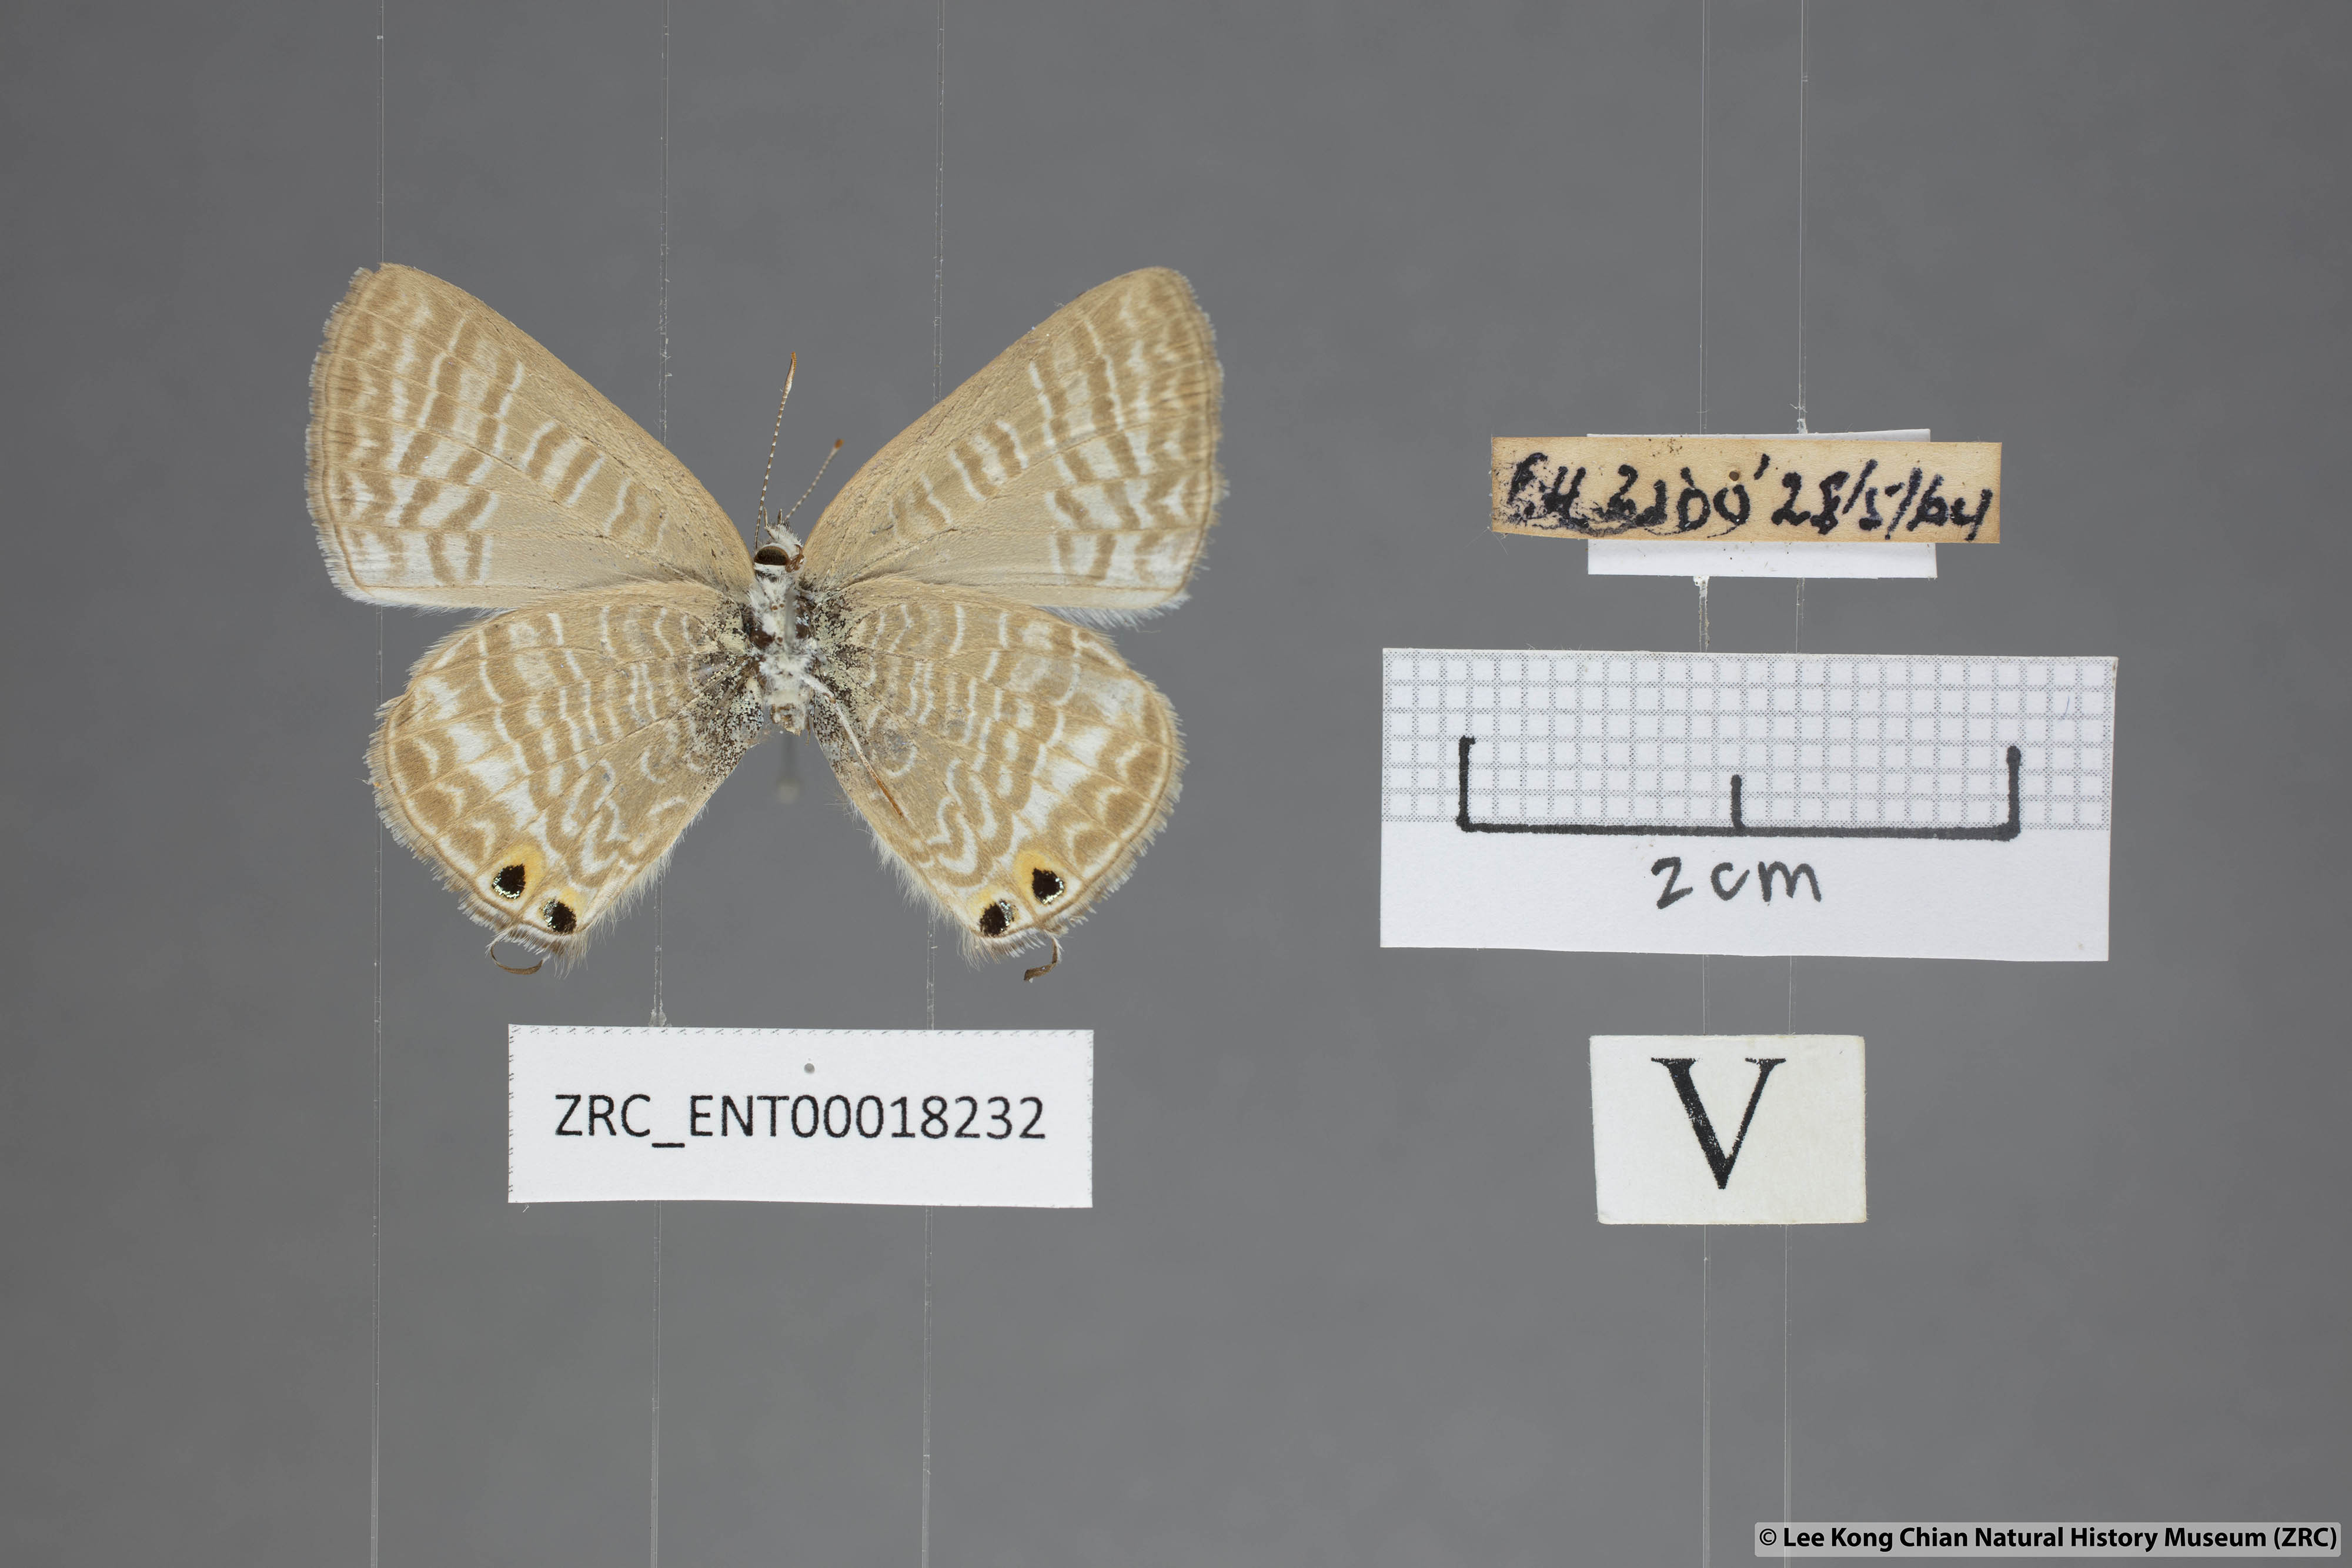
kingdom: Animalia
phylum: Arthropoda
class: Insecta
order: Lepidoptera
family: Lycaenidae
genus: Lampides
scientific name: Lampides boeticus
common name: Long-tailed blue
